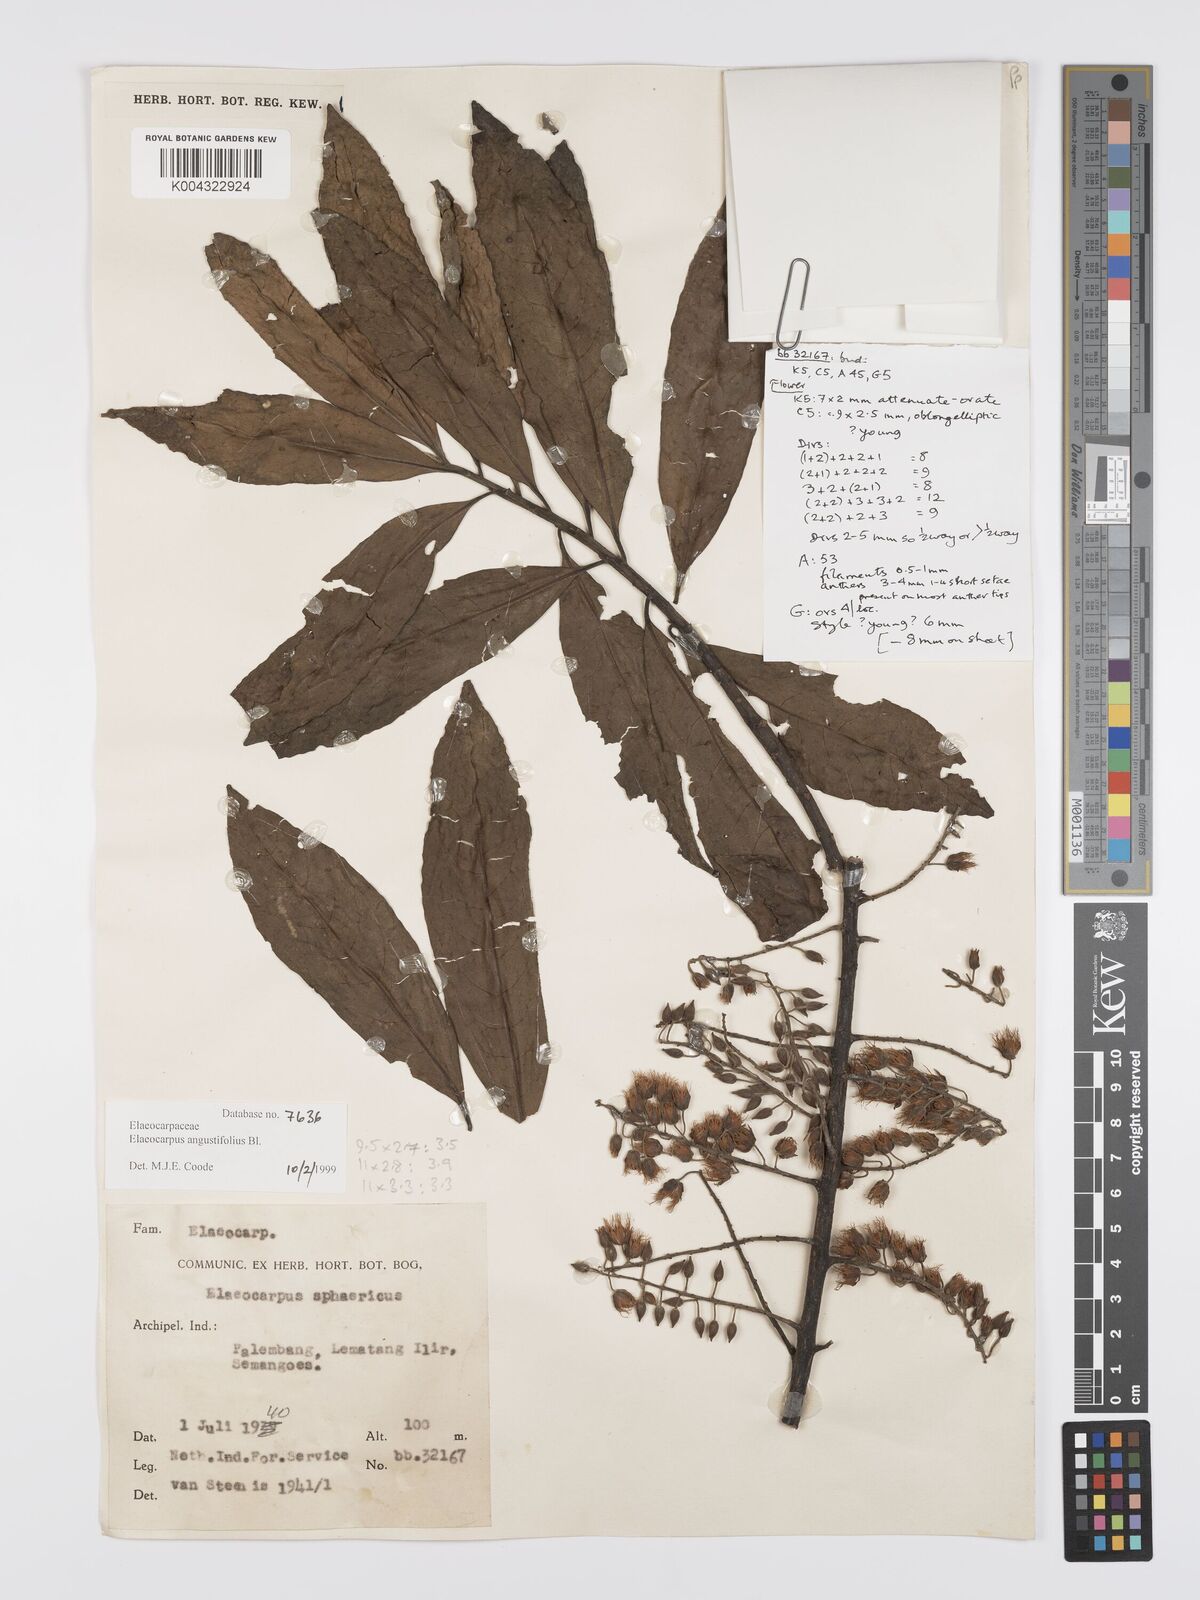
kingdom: Plantae
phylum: Tracheophyta
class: Magnoliopsida
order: Oxalidales
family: Elaeocarpaceae
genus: Elaeocarpus
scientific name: Elaeocarpus
